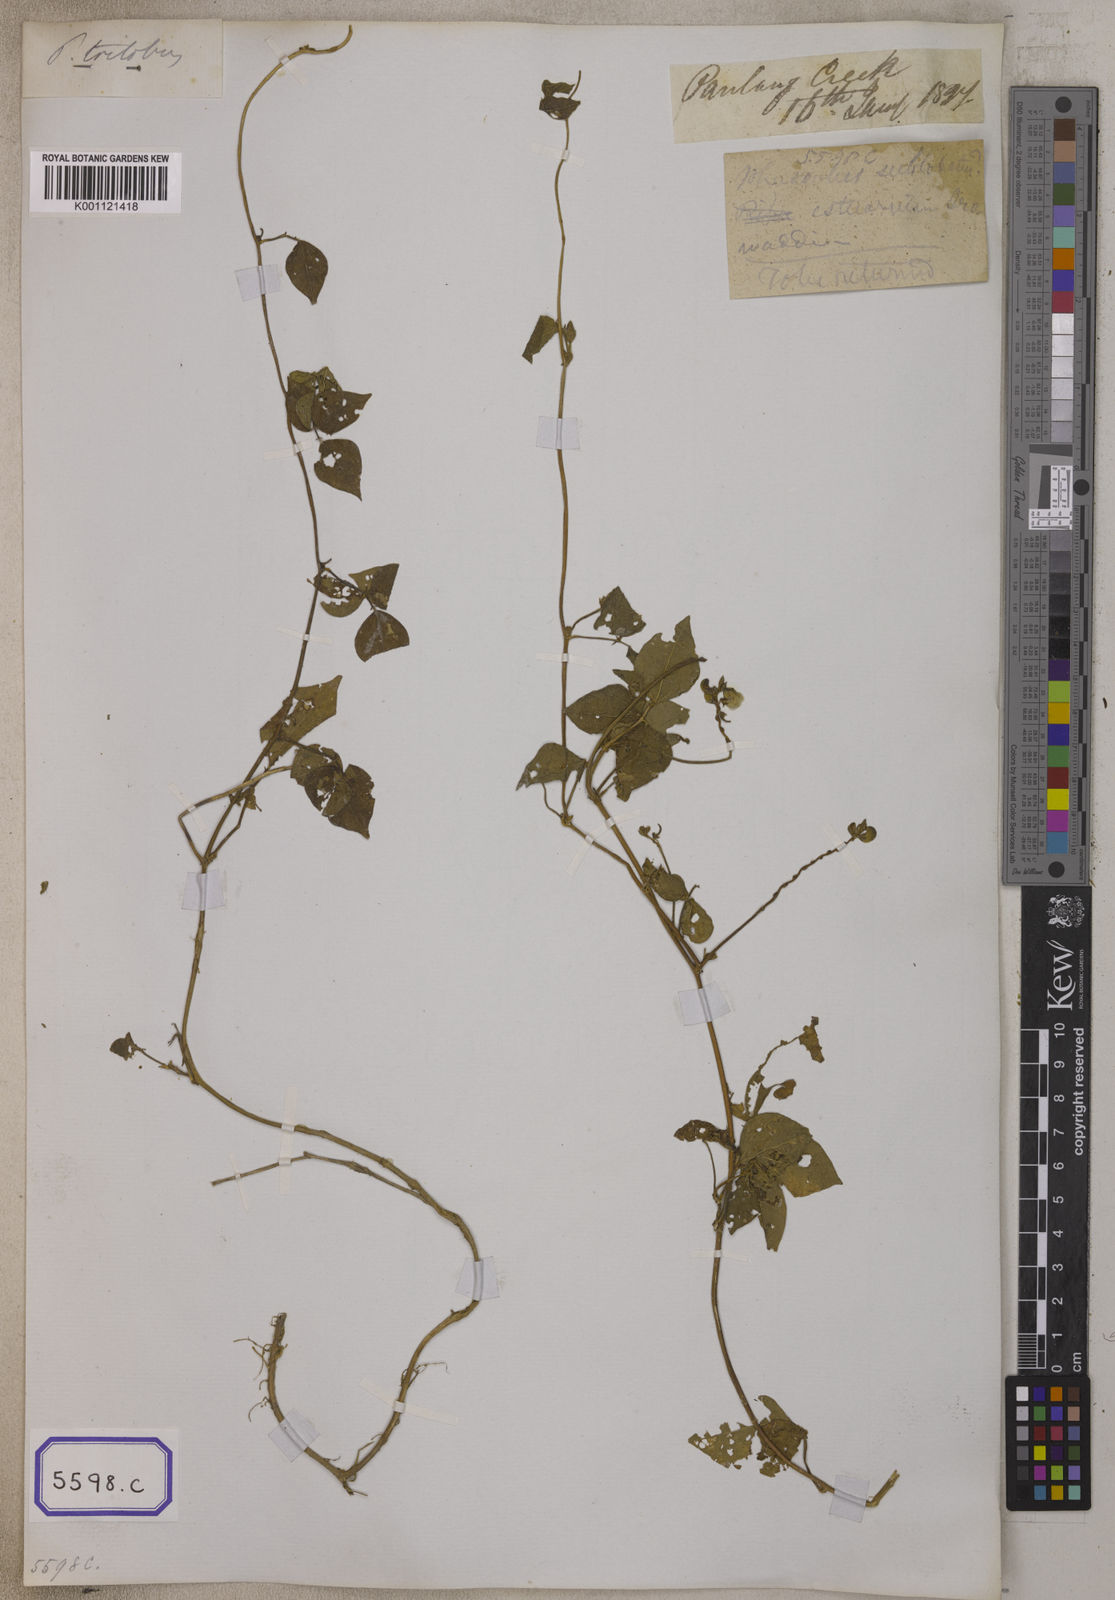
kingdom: Plantae
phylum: Tracheophyta
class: Magnoliopsida
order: Fabales
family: Fabaceae
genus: Phaseolus
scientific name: Phaseolus
